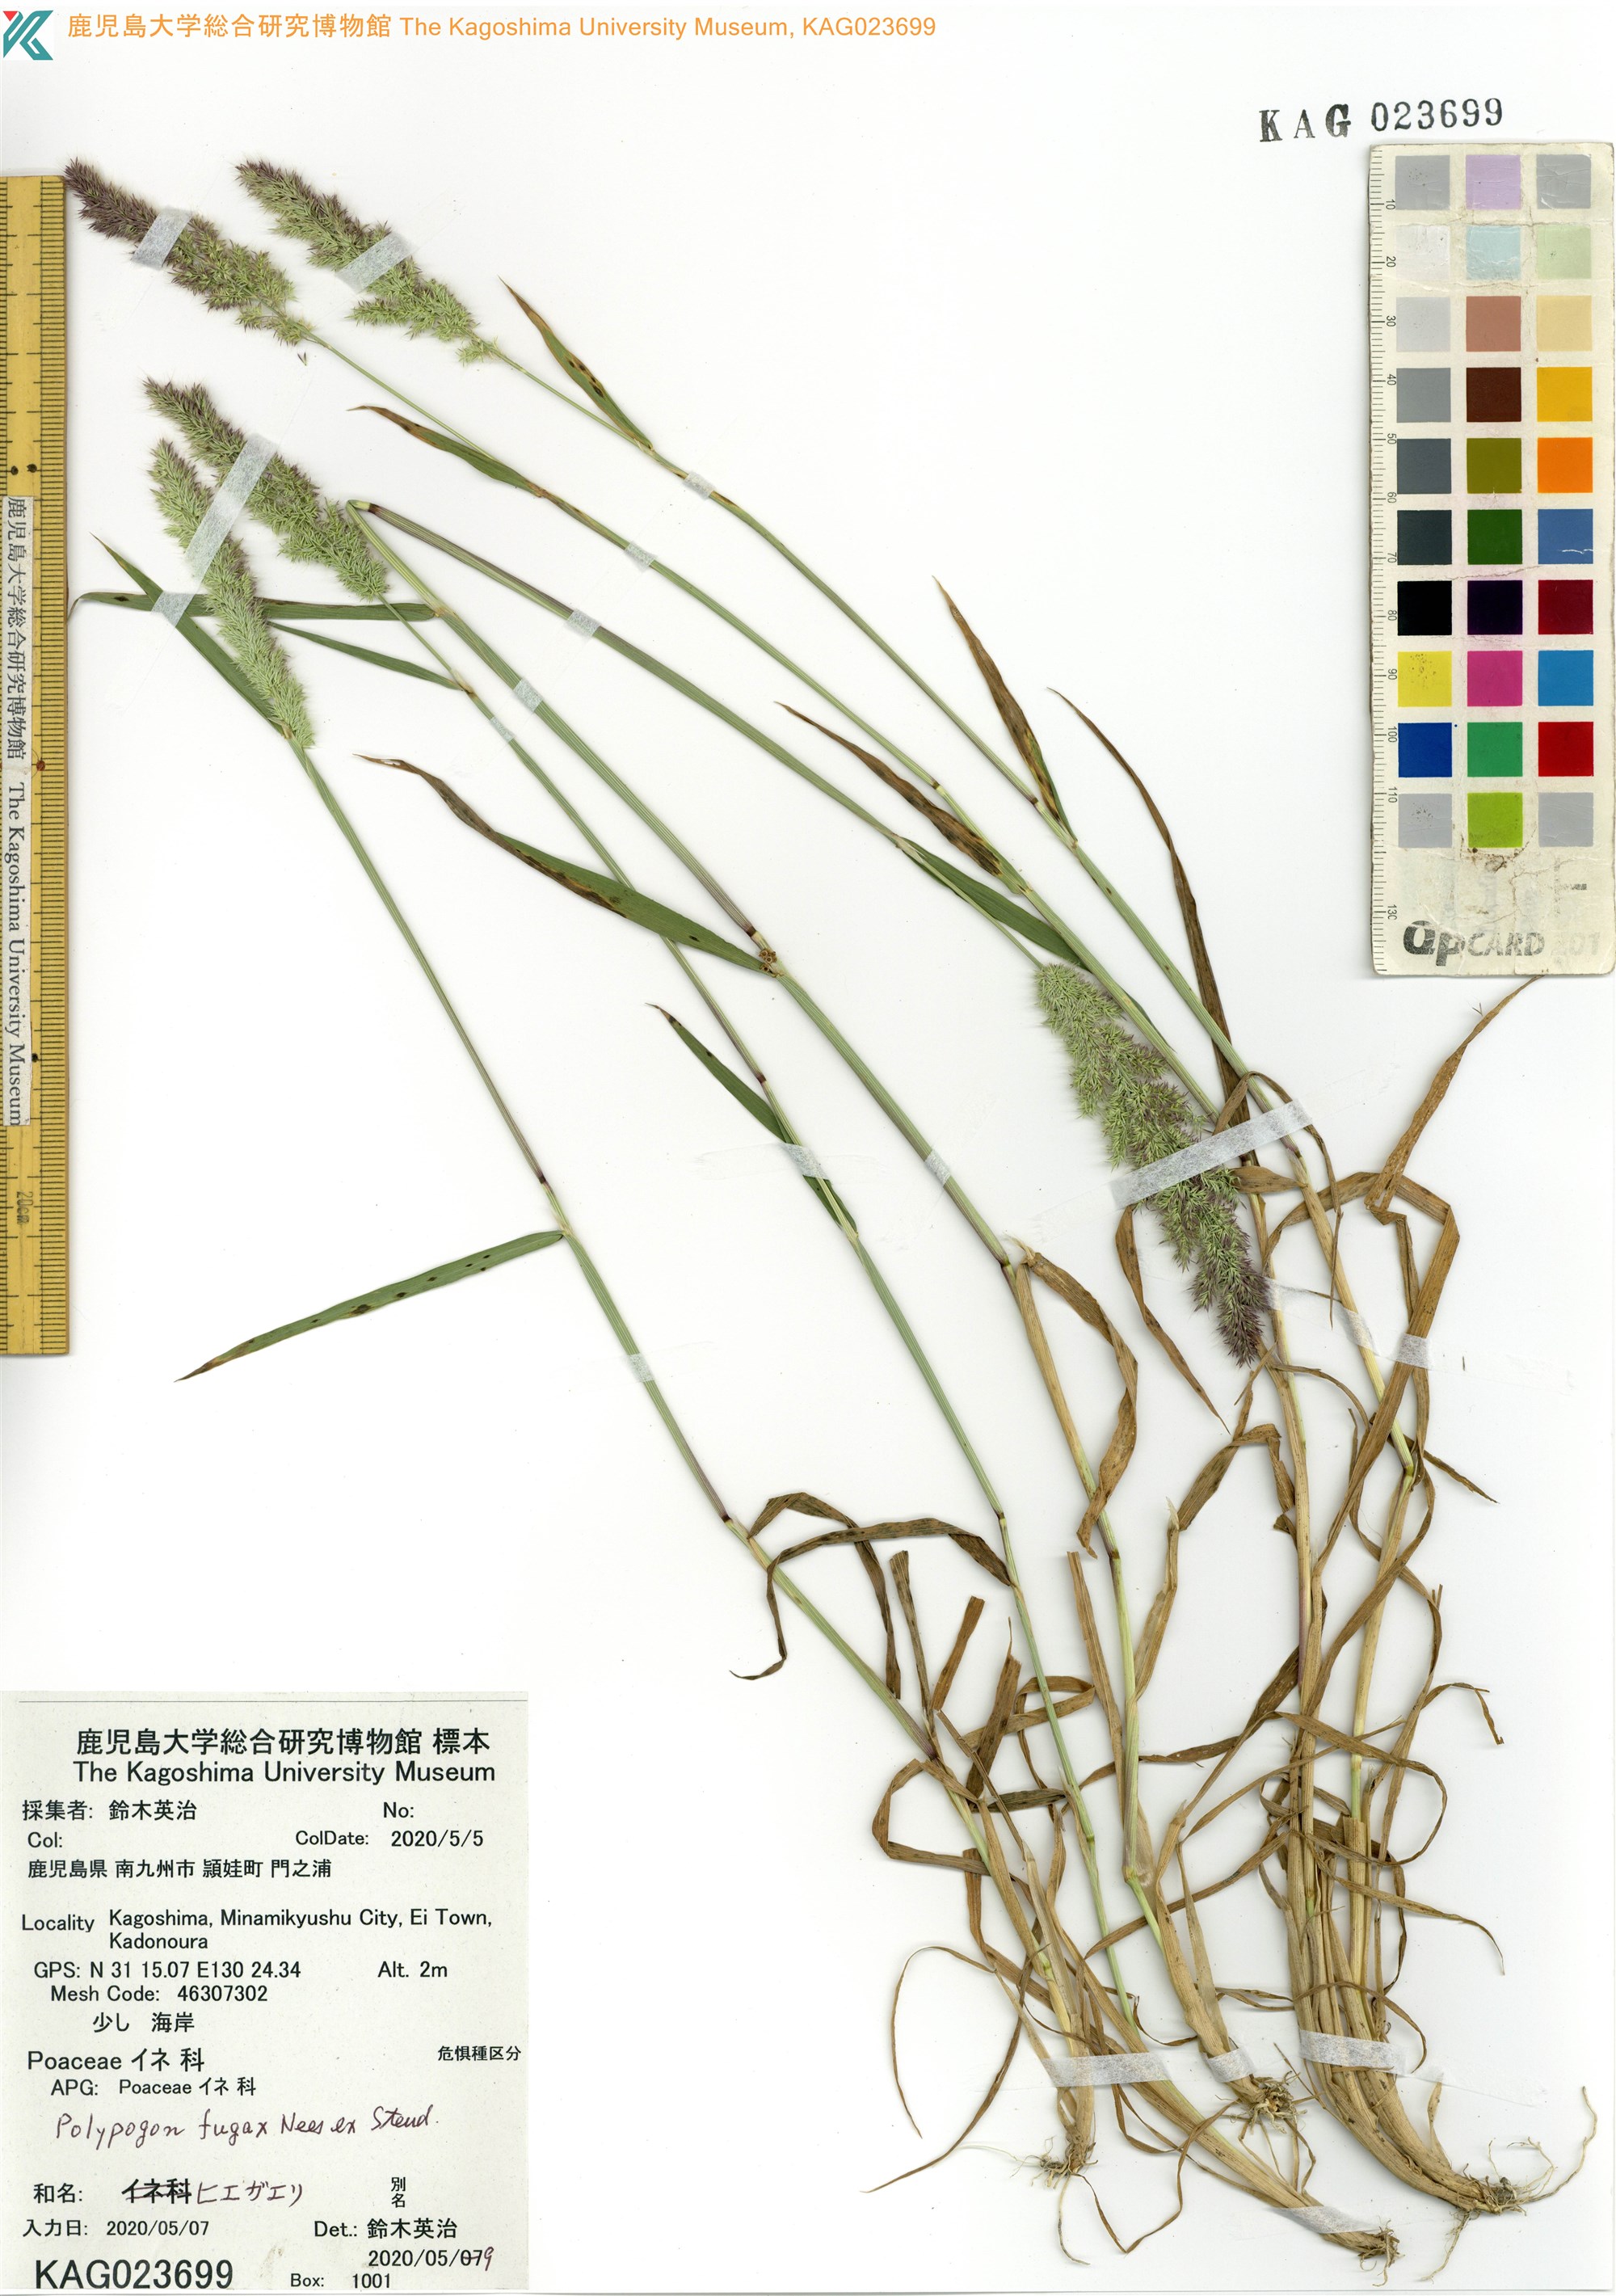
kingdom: Plantae
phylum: Tracheophyta
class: Liliopsida
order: Poales
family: Poaceae
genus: Polypogon
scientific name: Polypogon fugax
